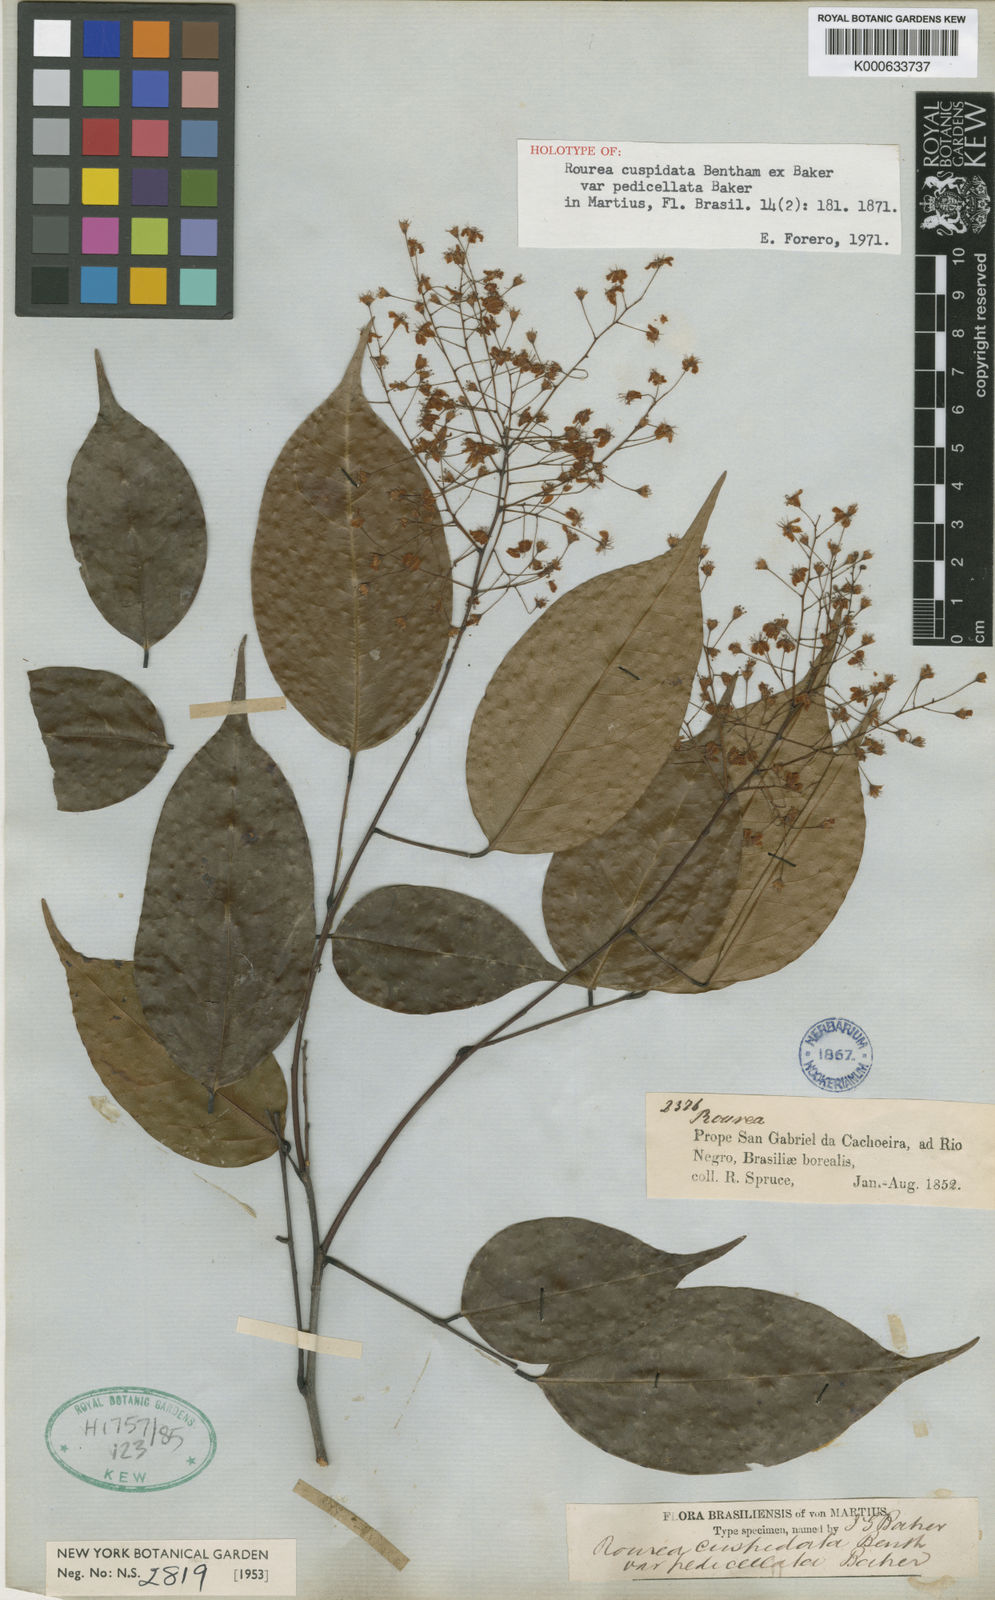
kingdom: Plantae
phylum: Tracheophyta
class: Magnoliopsida
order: Oxalidales
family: Connaraceae
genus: Rourea
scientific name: Rourea cuspidata
